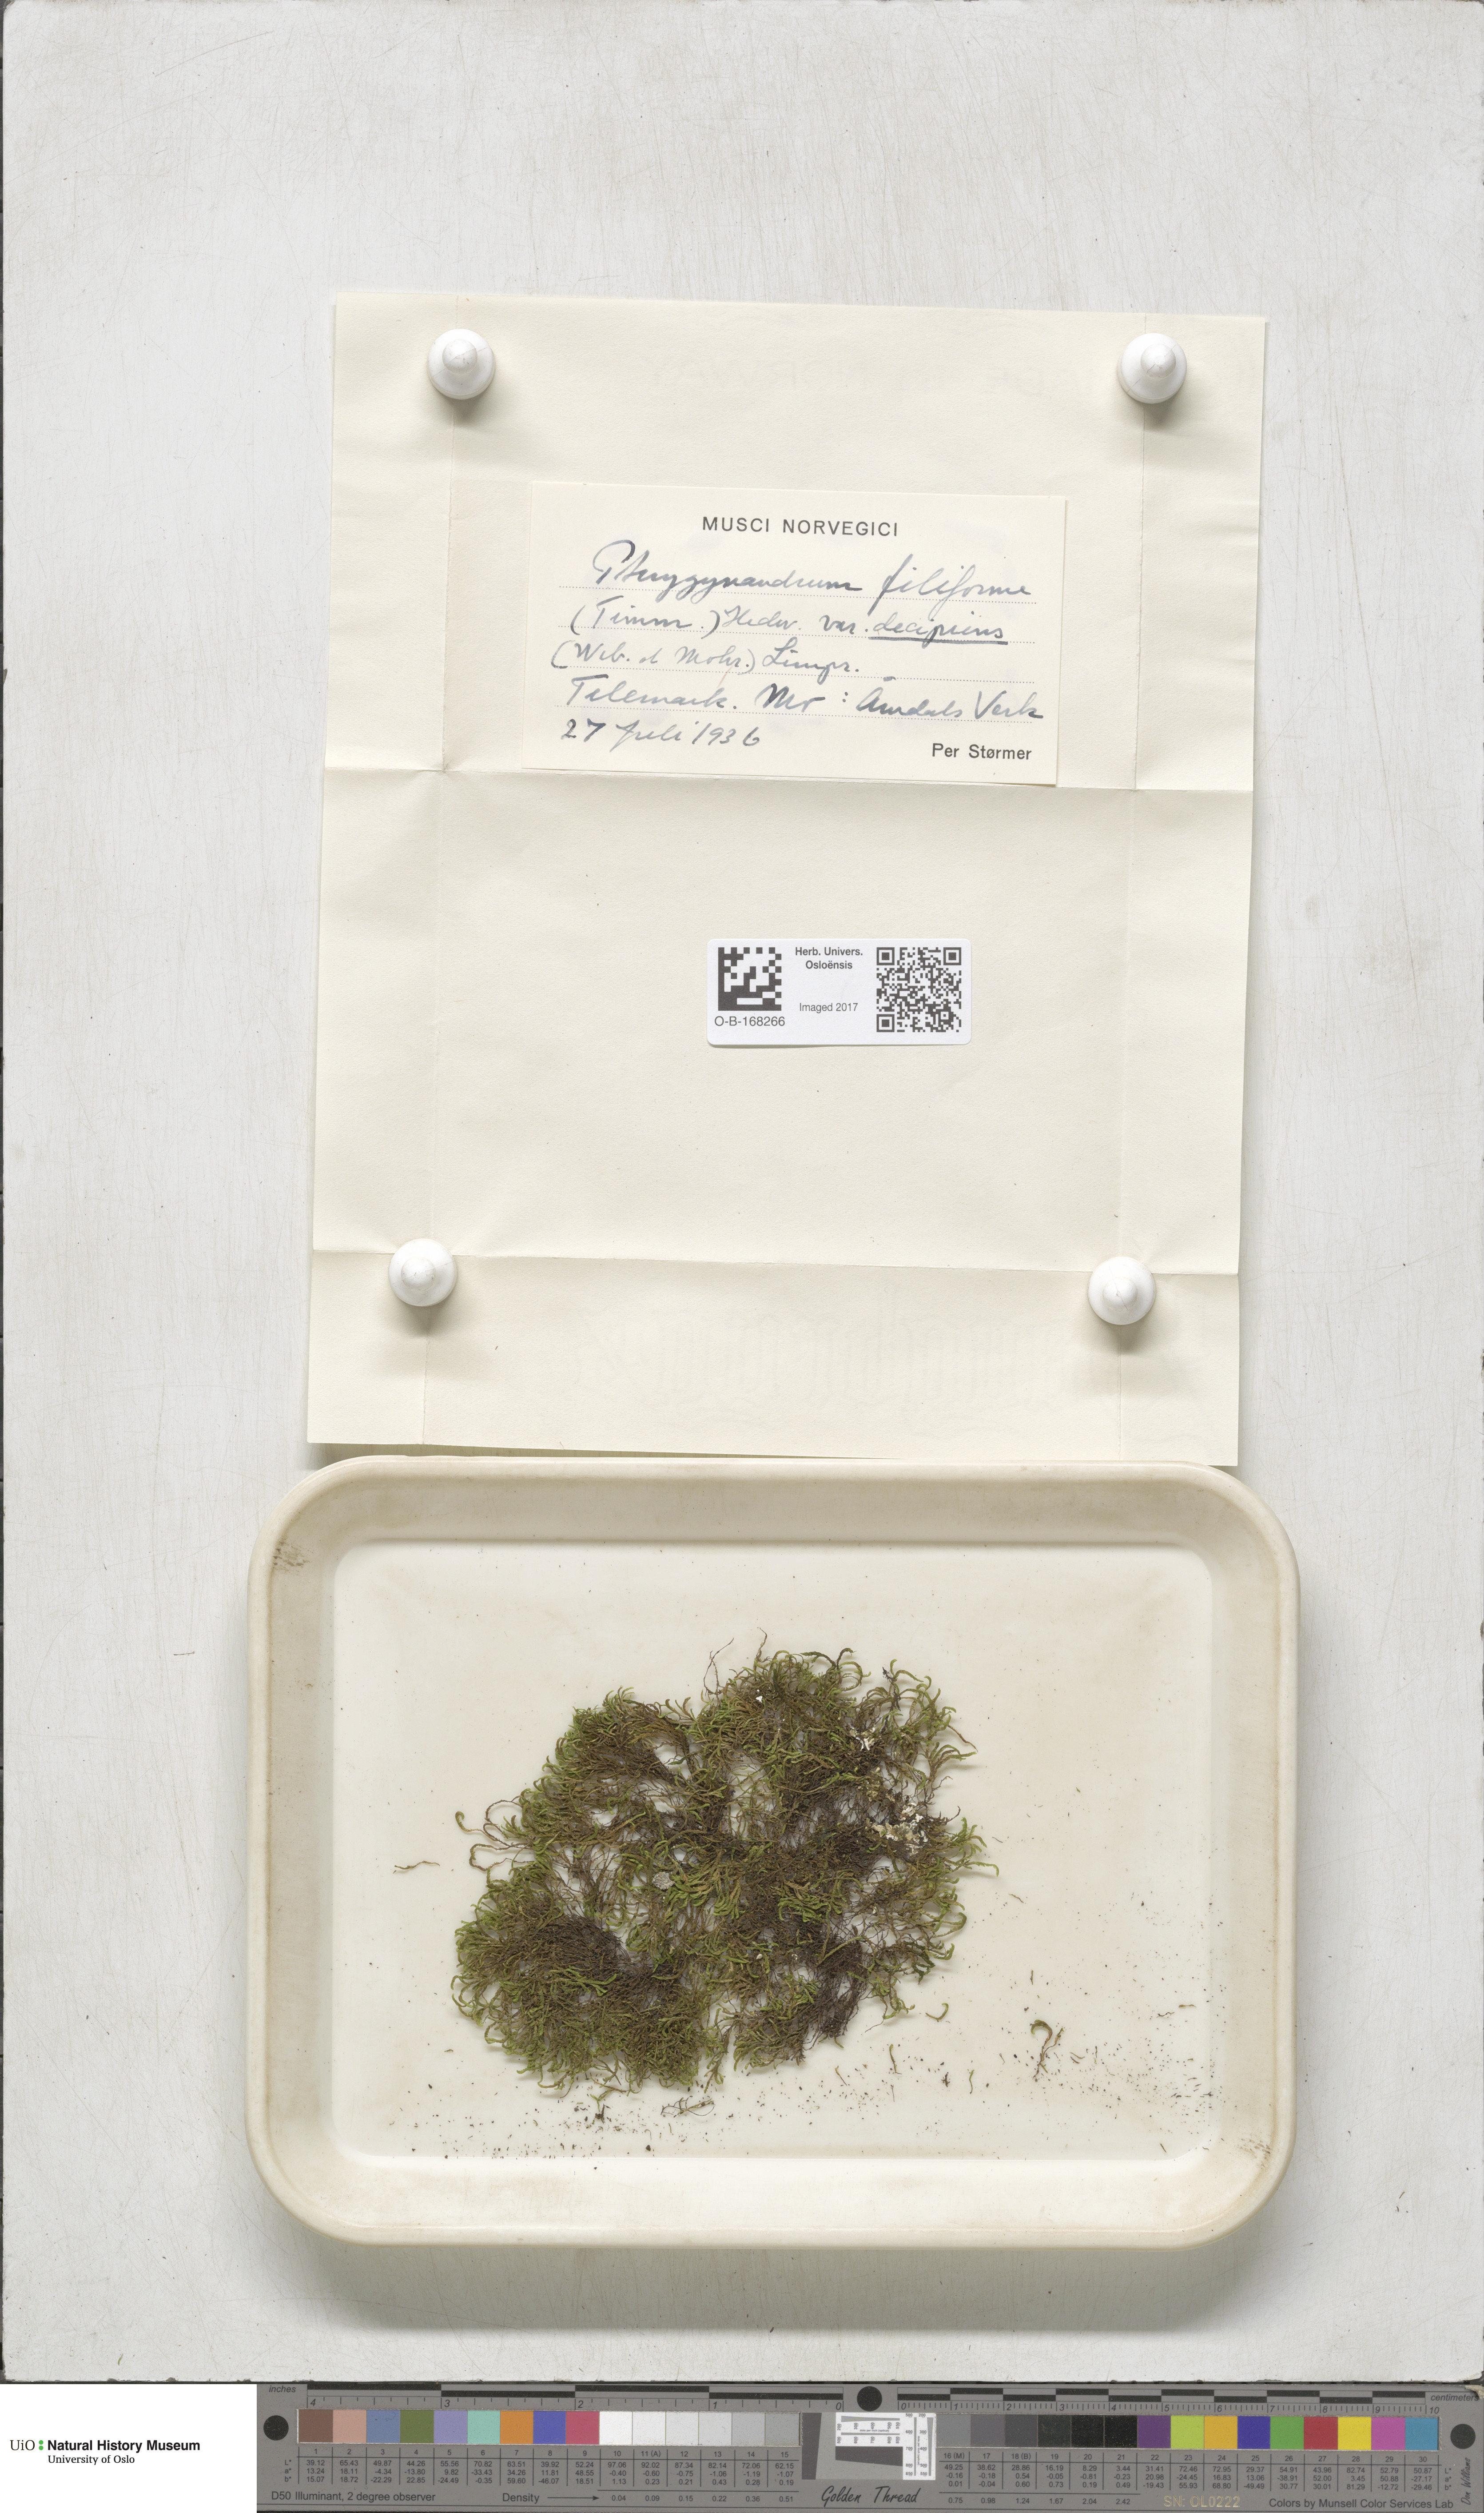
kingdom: Plantae
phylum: Bryophyta
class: Bryopsida
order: Hypnales
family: Pterigynandraceae
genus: Pterigynandrum
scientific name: Pterigynandrum filiforme
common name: Capillary wing moss
